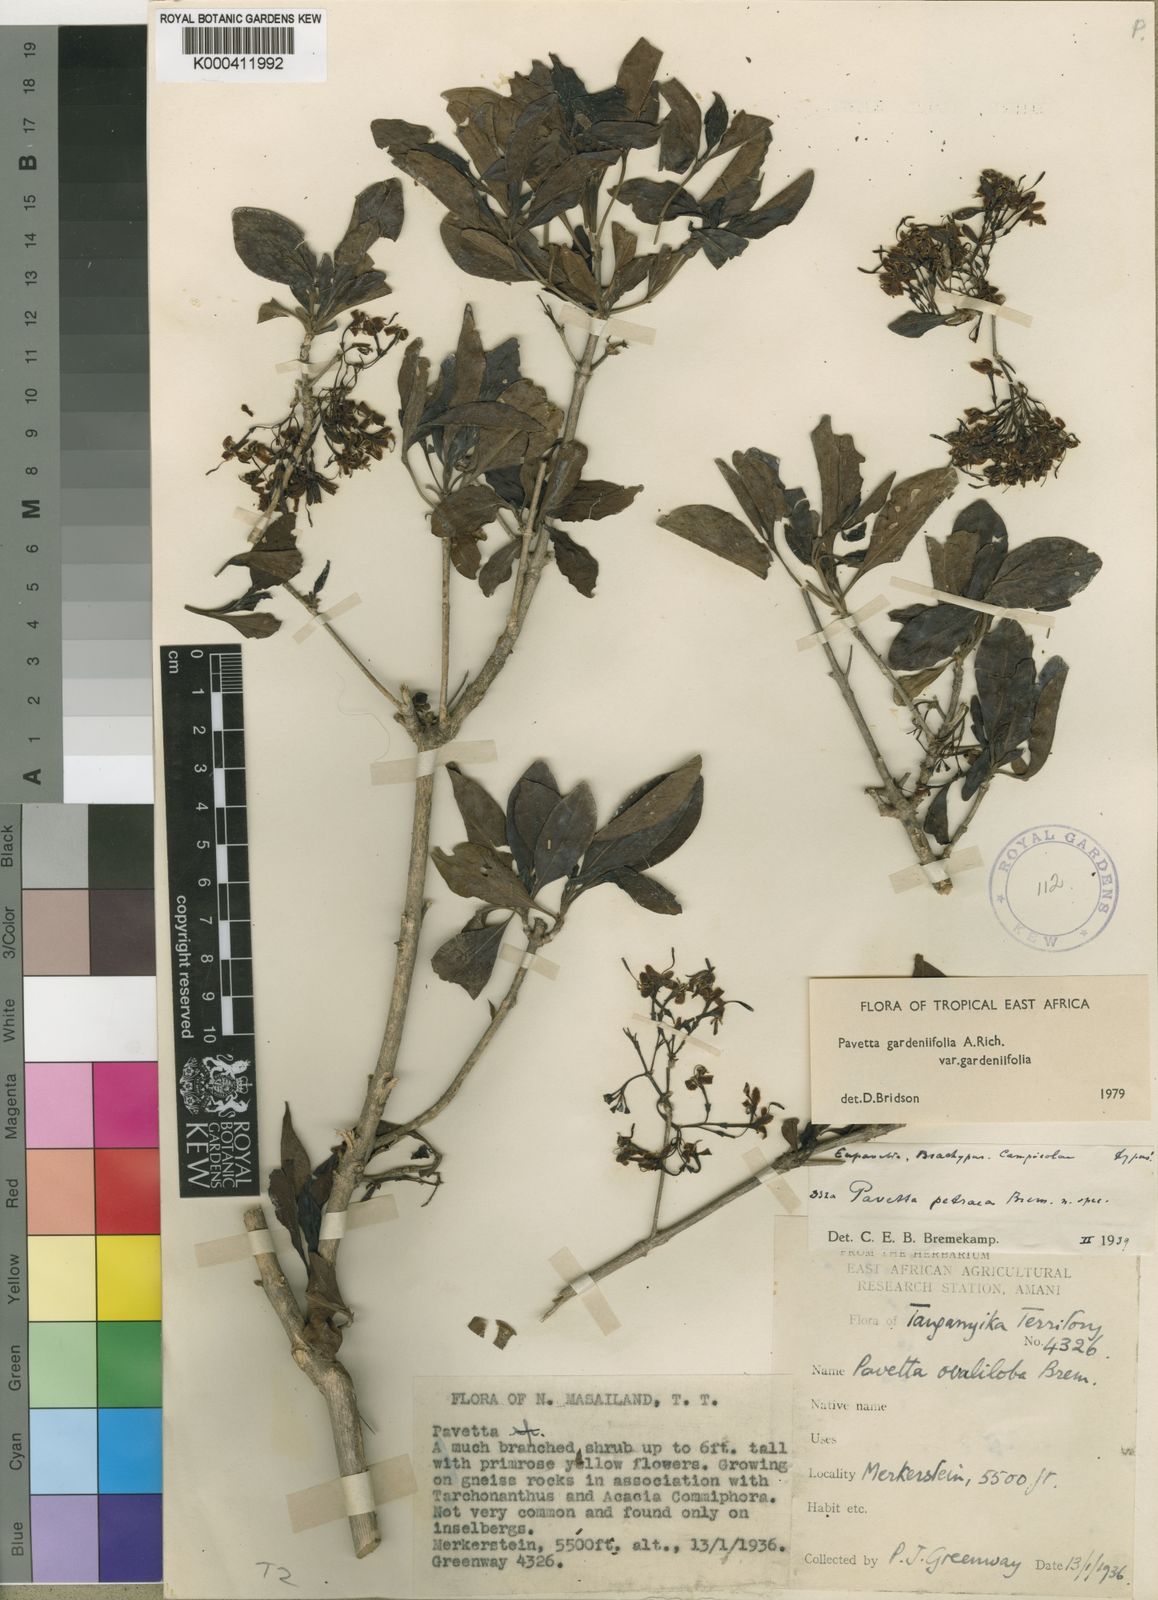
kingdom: Plantae
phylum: Tracheophyta
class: Magnoliopsida
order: Gentianales
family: Rubiaceae
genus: Pavetta
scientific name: Pavetta gardeniifolia
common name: Common brides-bush
